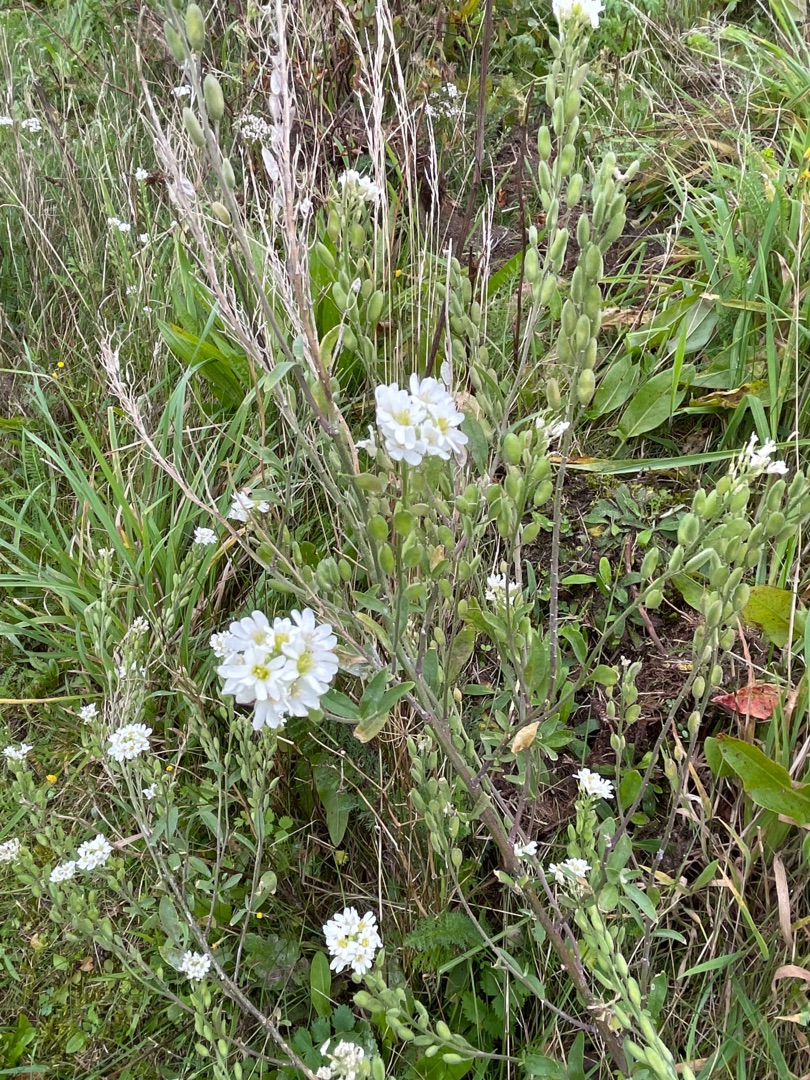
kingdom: Plantae
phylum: Tracheophyta
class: Magnoliopsida
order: Brassicales
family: Brassicaceae
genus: Berteroa
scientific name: Berteroa incana
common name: Kløvplade
